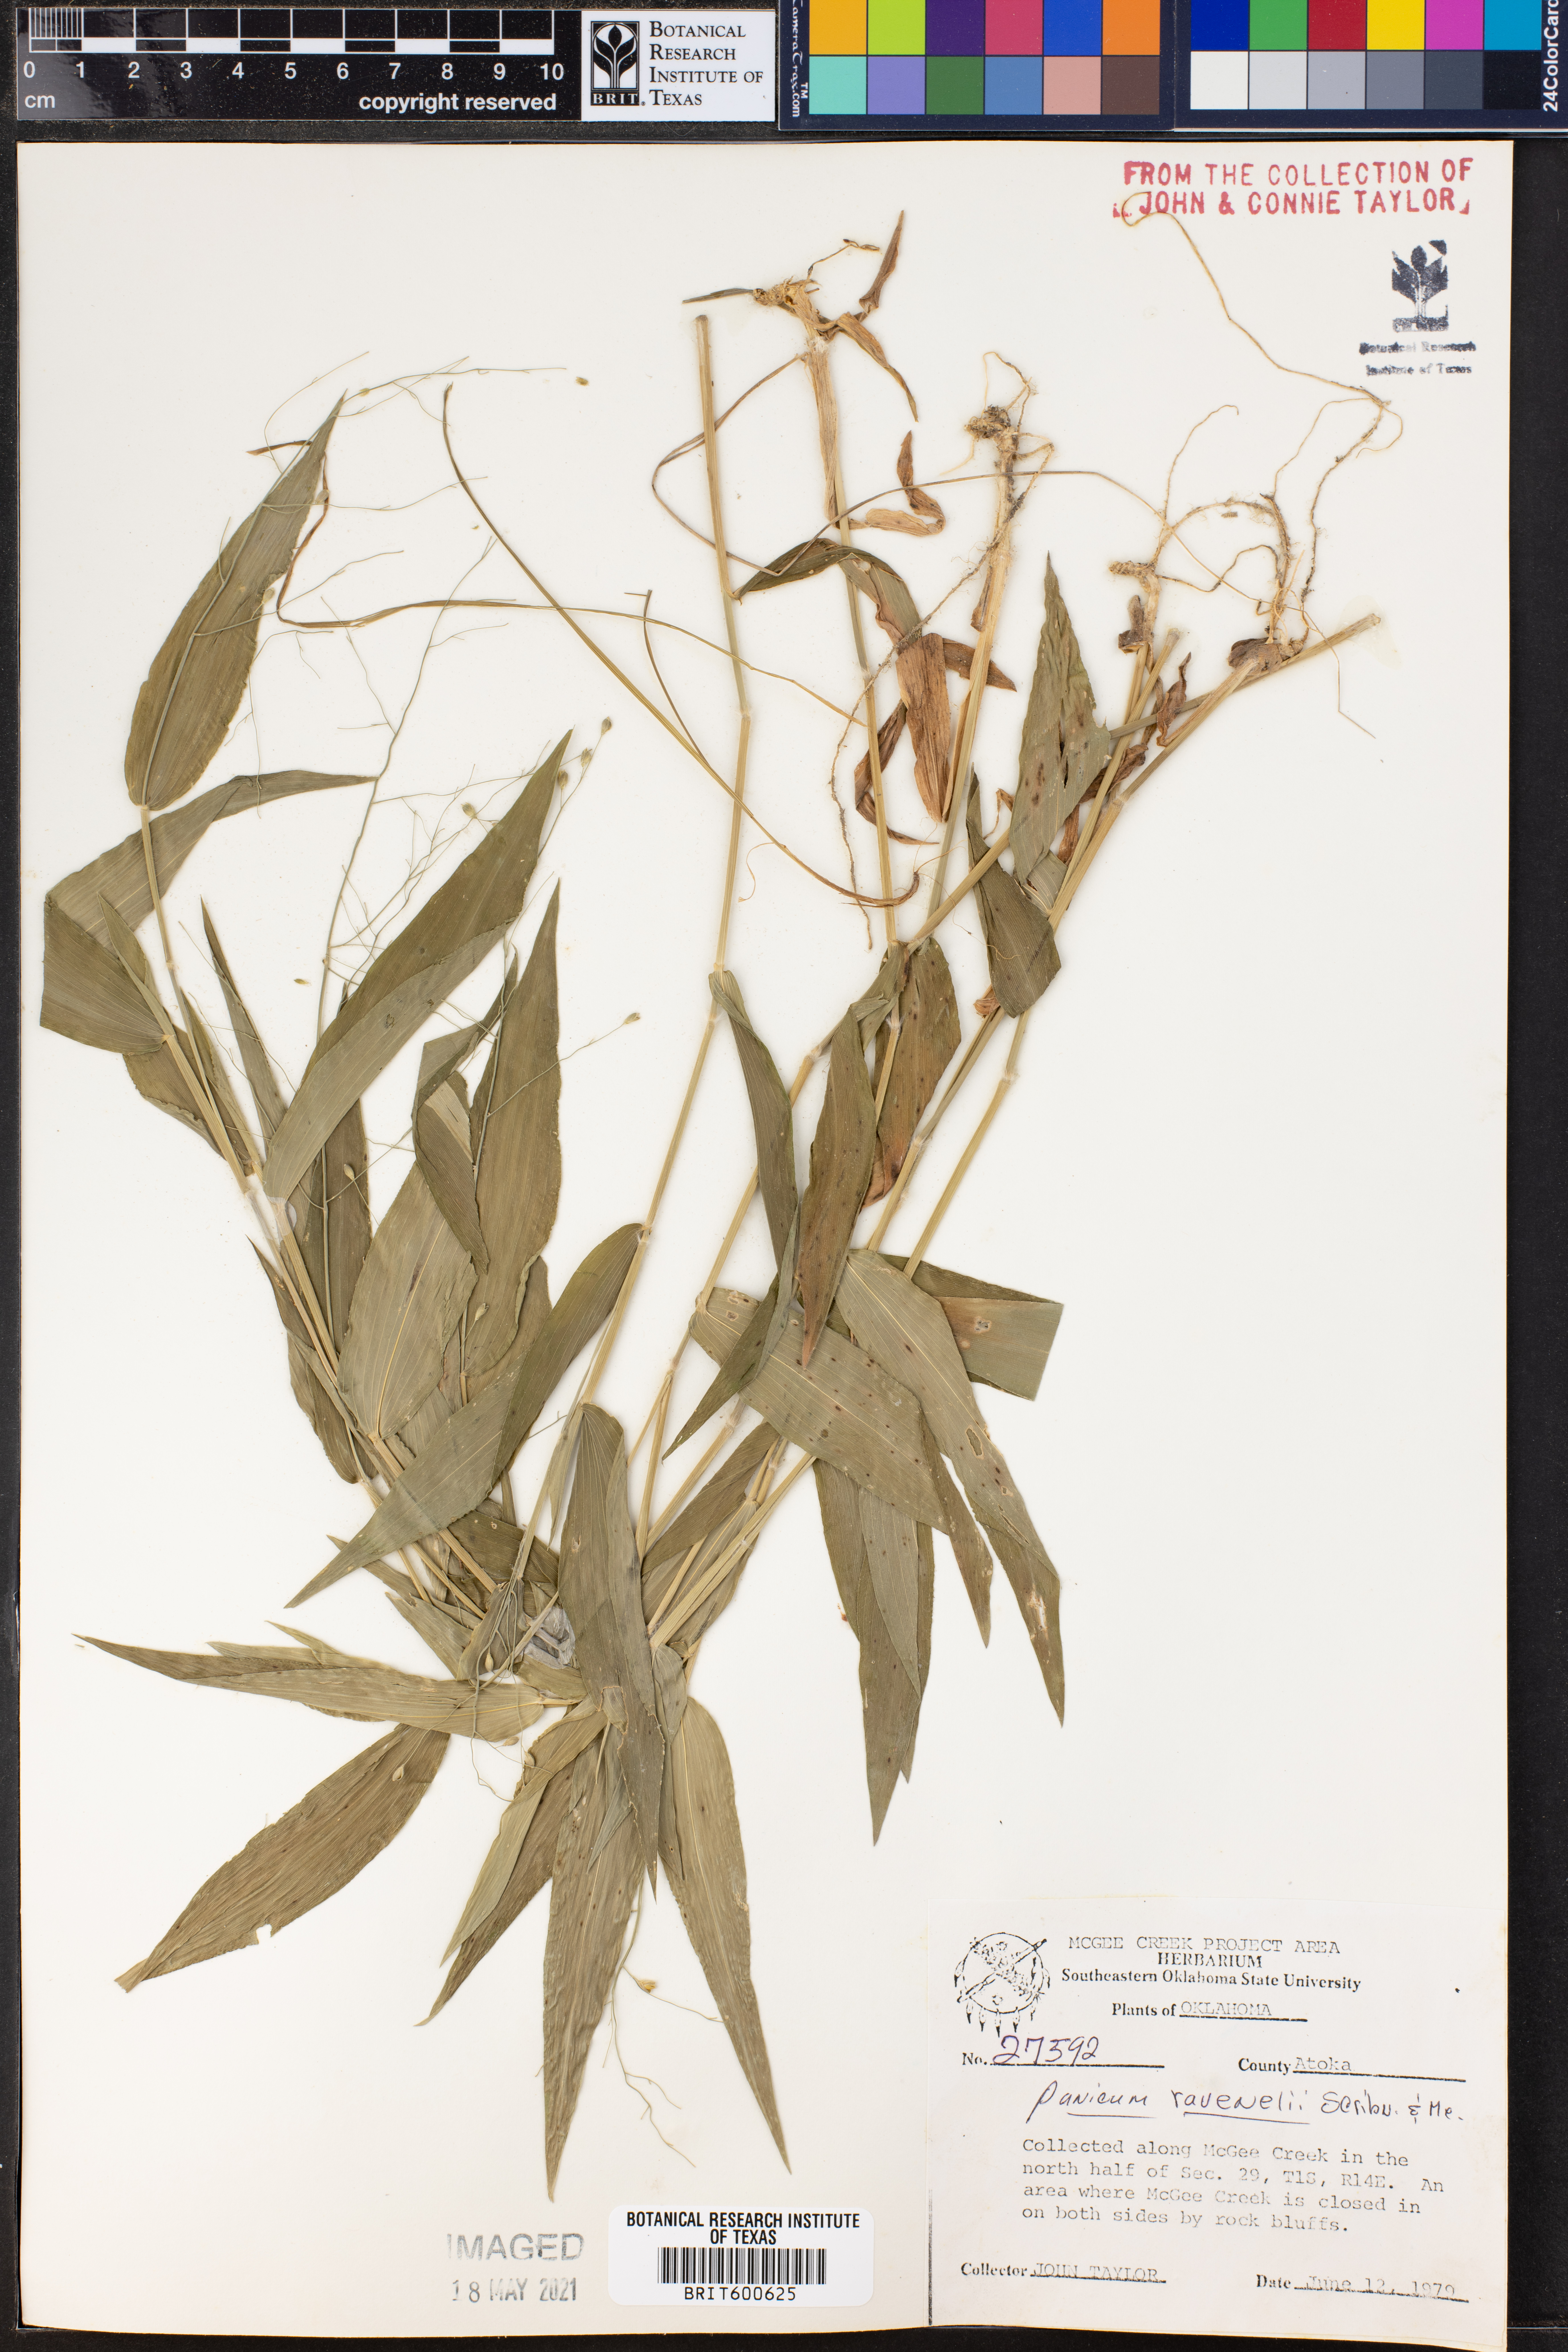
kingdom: Plantae
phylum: Tracheophyta
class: Liliopsida
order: Poales
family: Poaceae
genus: Dichanthelium
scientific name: Dichanthelium ravenelii
